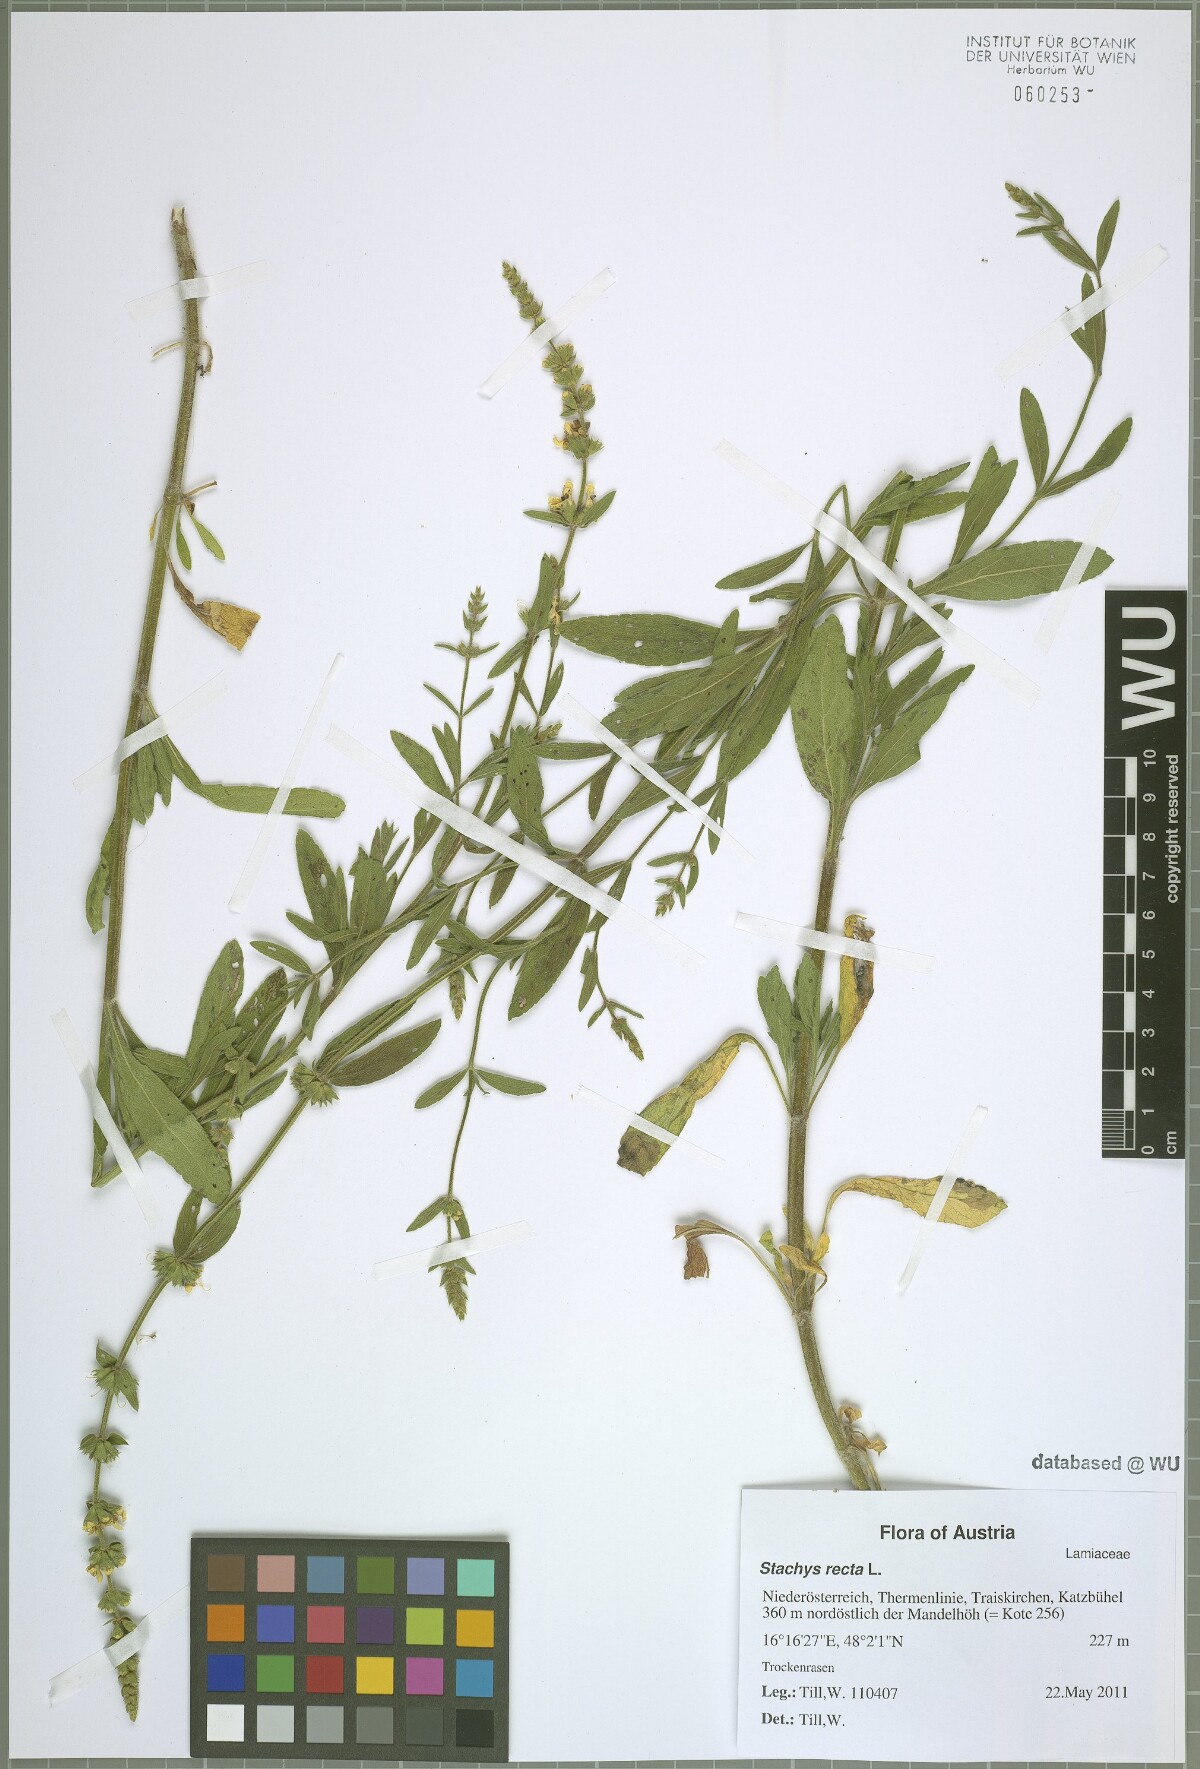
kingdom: Plantae
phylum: Tracheophyta
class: Magnoliopsida
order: Lamiales
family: Lamiaceae
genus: Stachys
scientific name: Stachys recta
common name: Perennial yellow-woundwort
